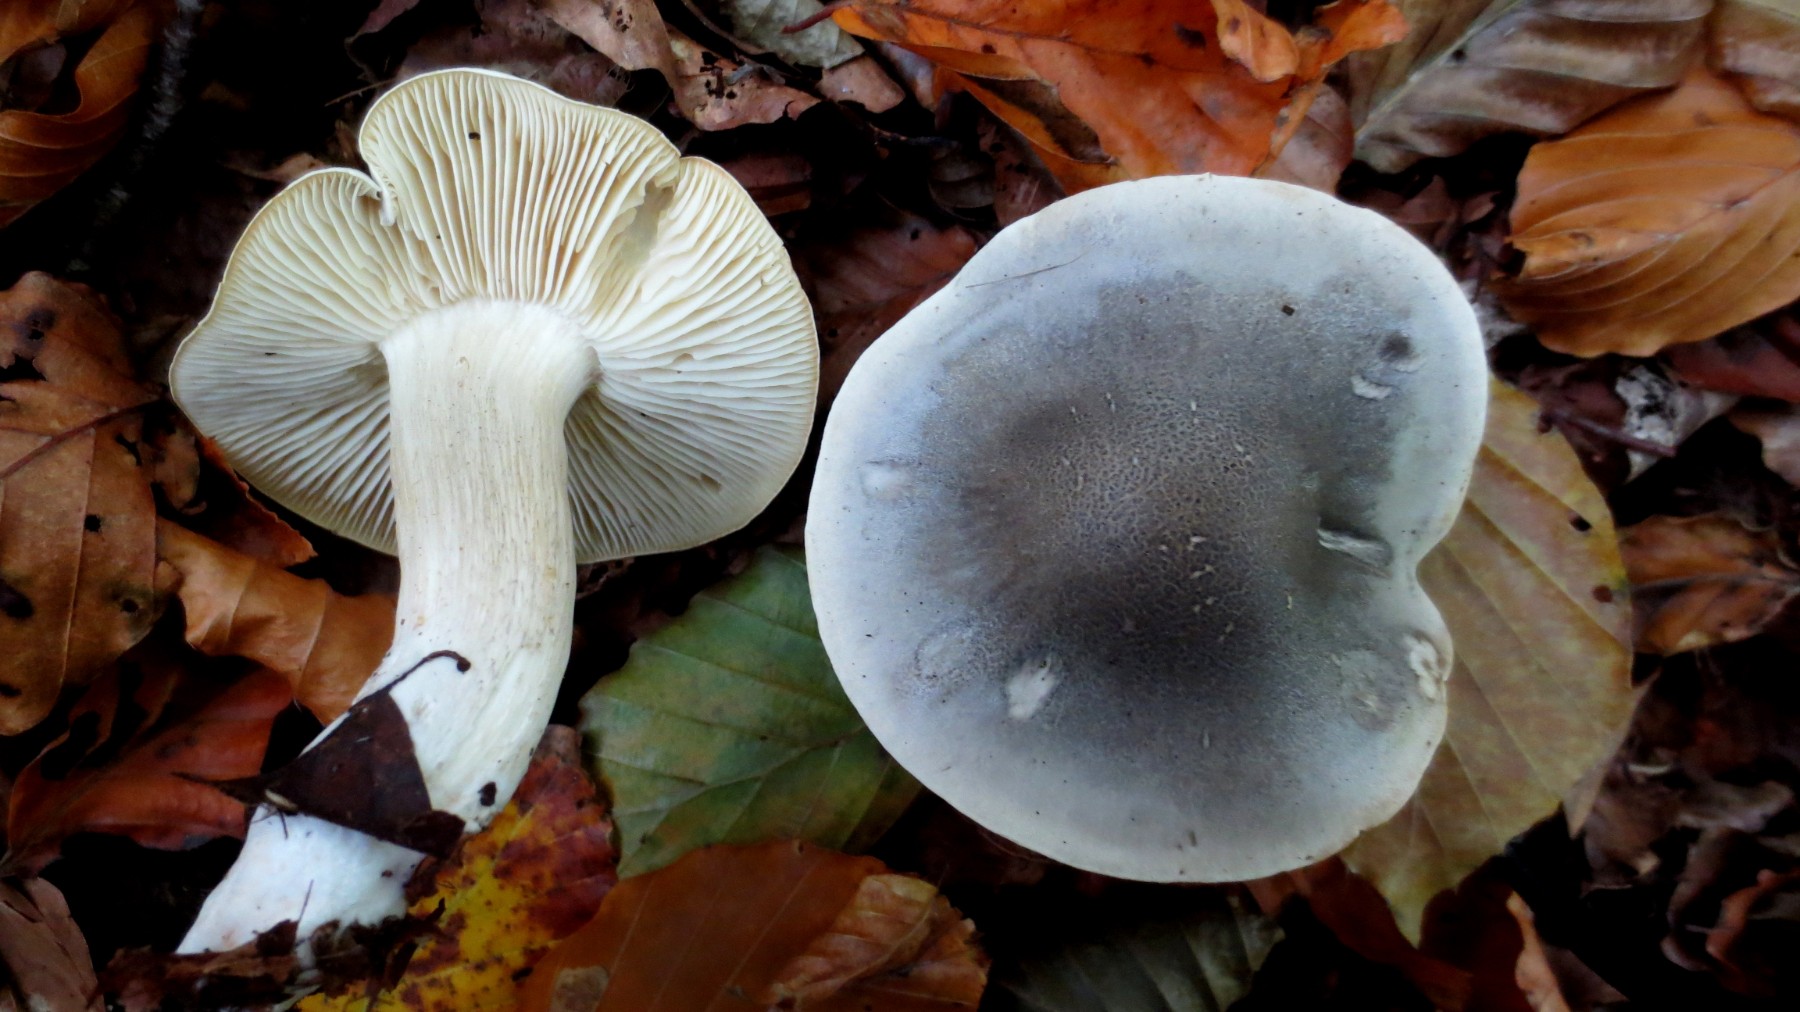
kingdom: Fungi
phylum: Basidiomycota
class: Agaricomycetes
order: Agaricales
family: Tricholomataceae
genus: Tricholoma
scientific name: Tricholoma saponaceum
